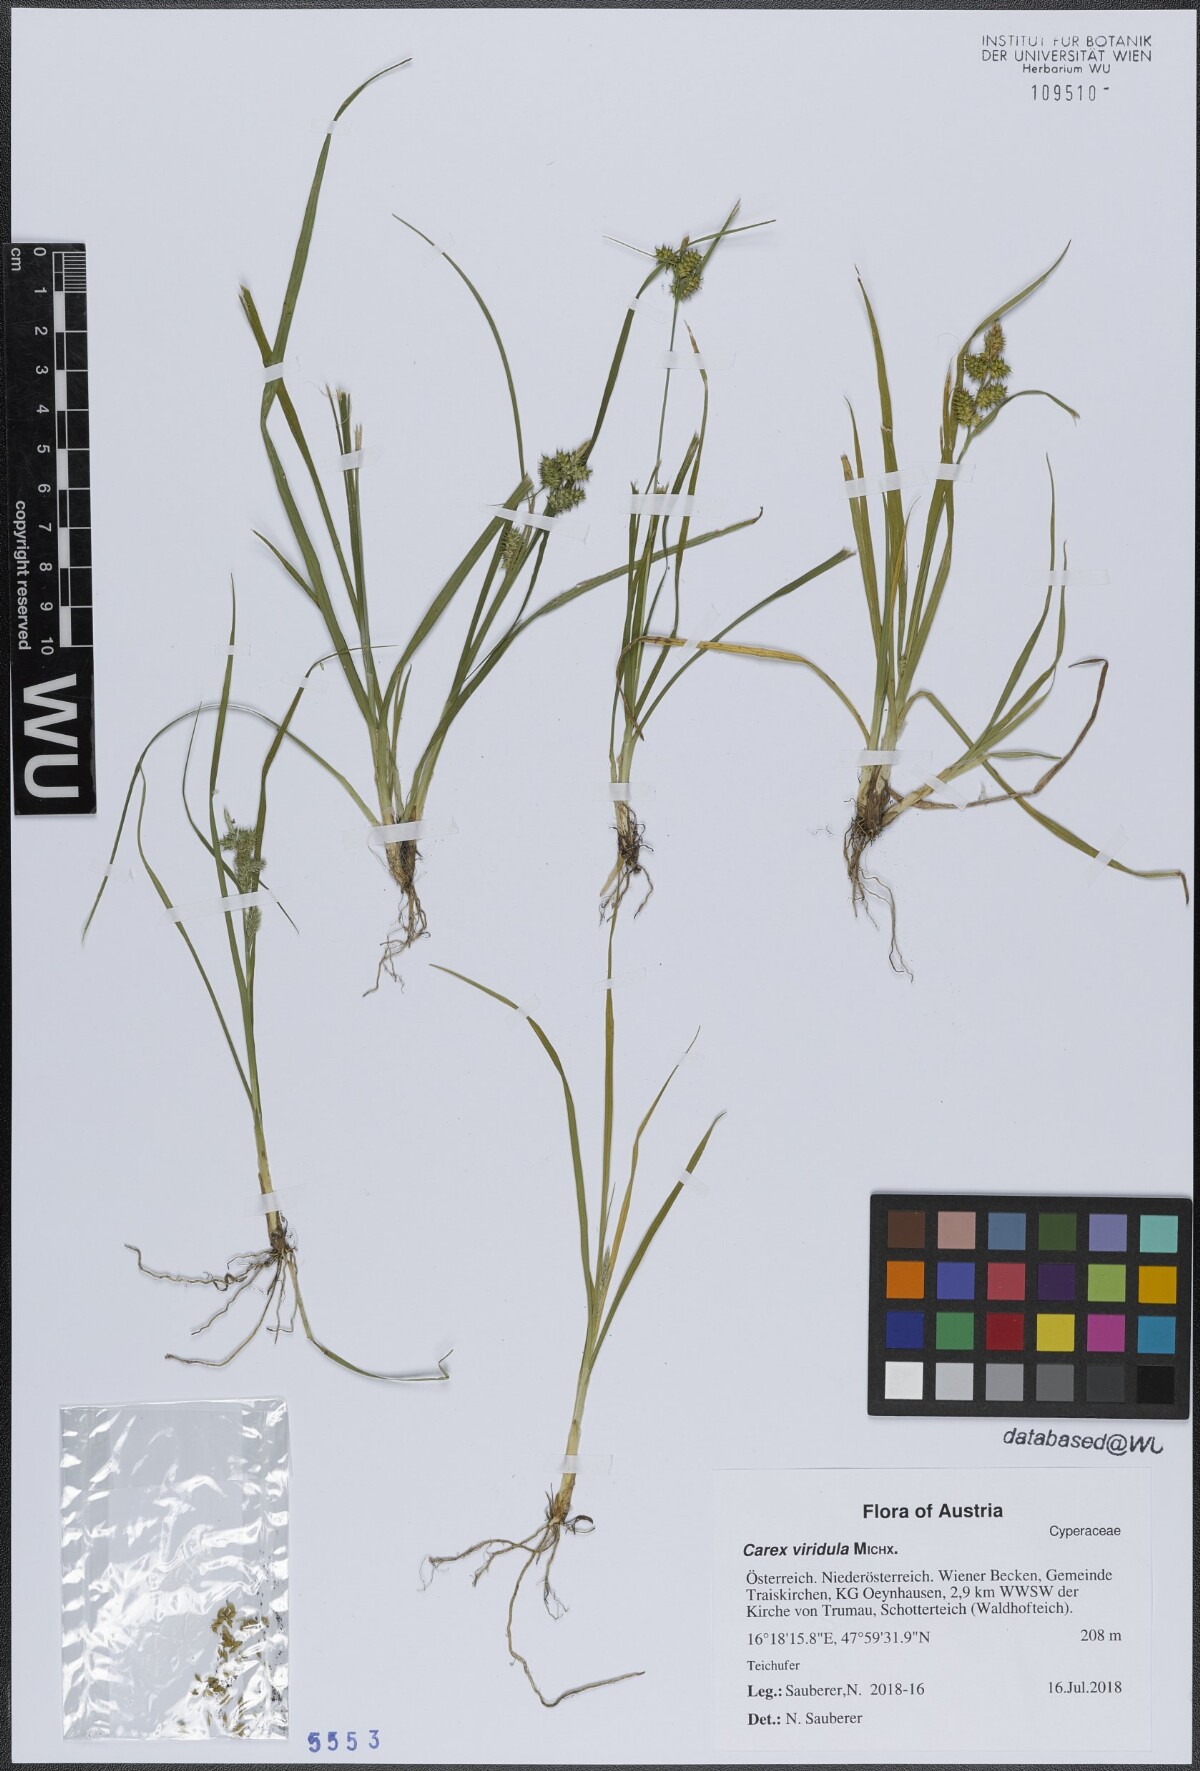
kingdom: Plantae
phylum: Tracheophyta
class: Liliopsida
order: Poales
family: Cyperaceae
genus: Carex
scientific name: Carex oederi
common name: Common & small-fruited yellow-sedge
